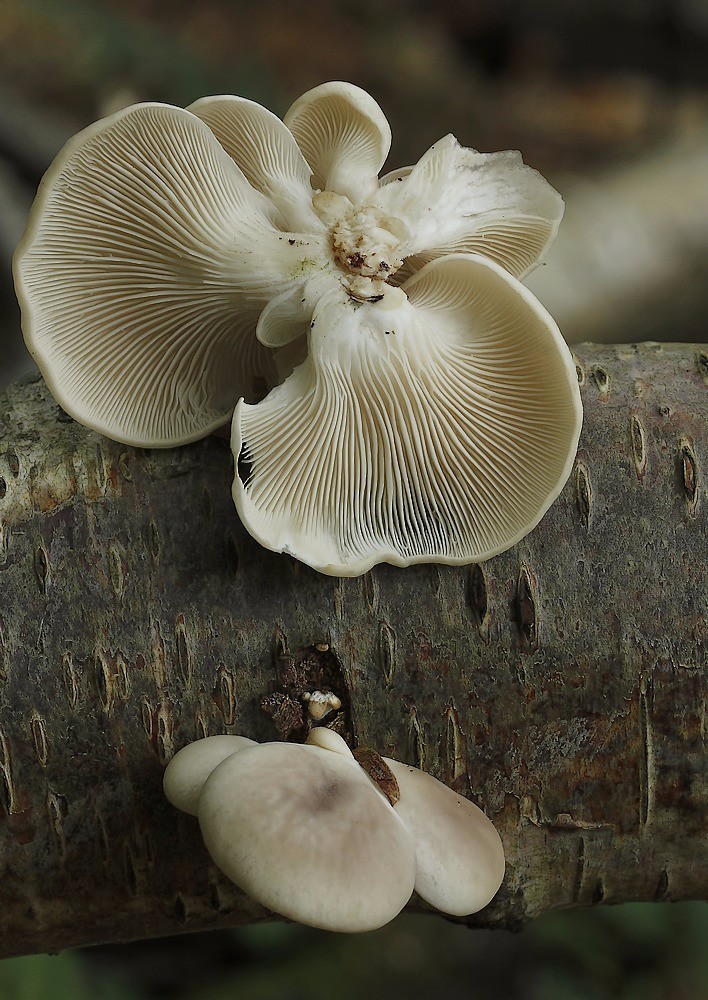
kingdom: Fungi
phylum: Basidiomycota
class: Agaricomycetes
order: Agaricales
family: Pleurotaceae
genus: Pleurotus
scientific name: Pleurotus
